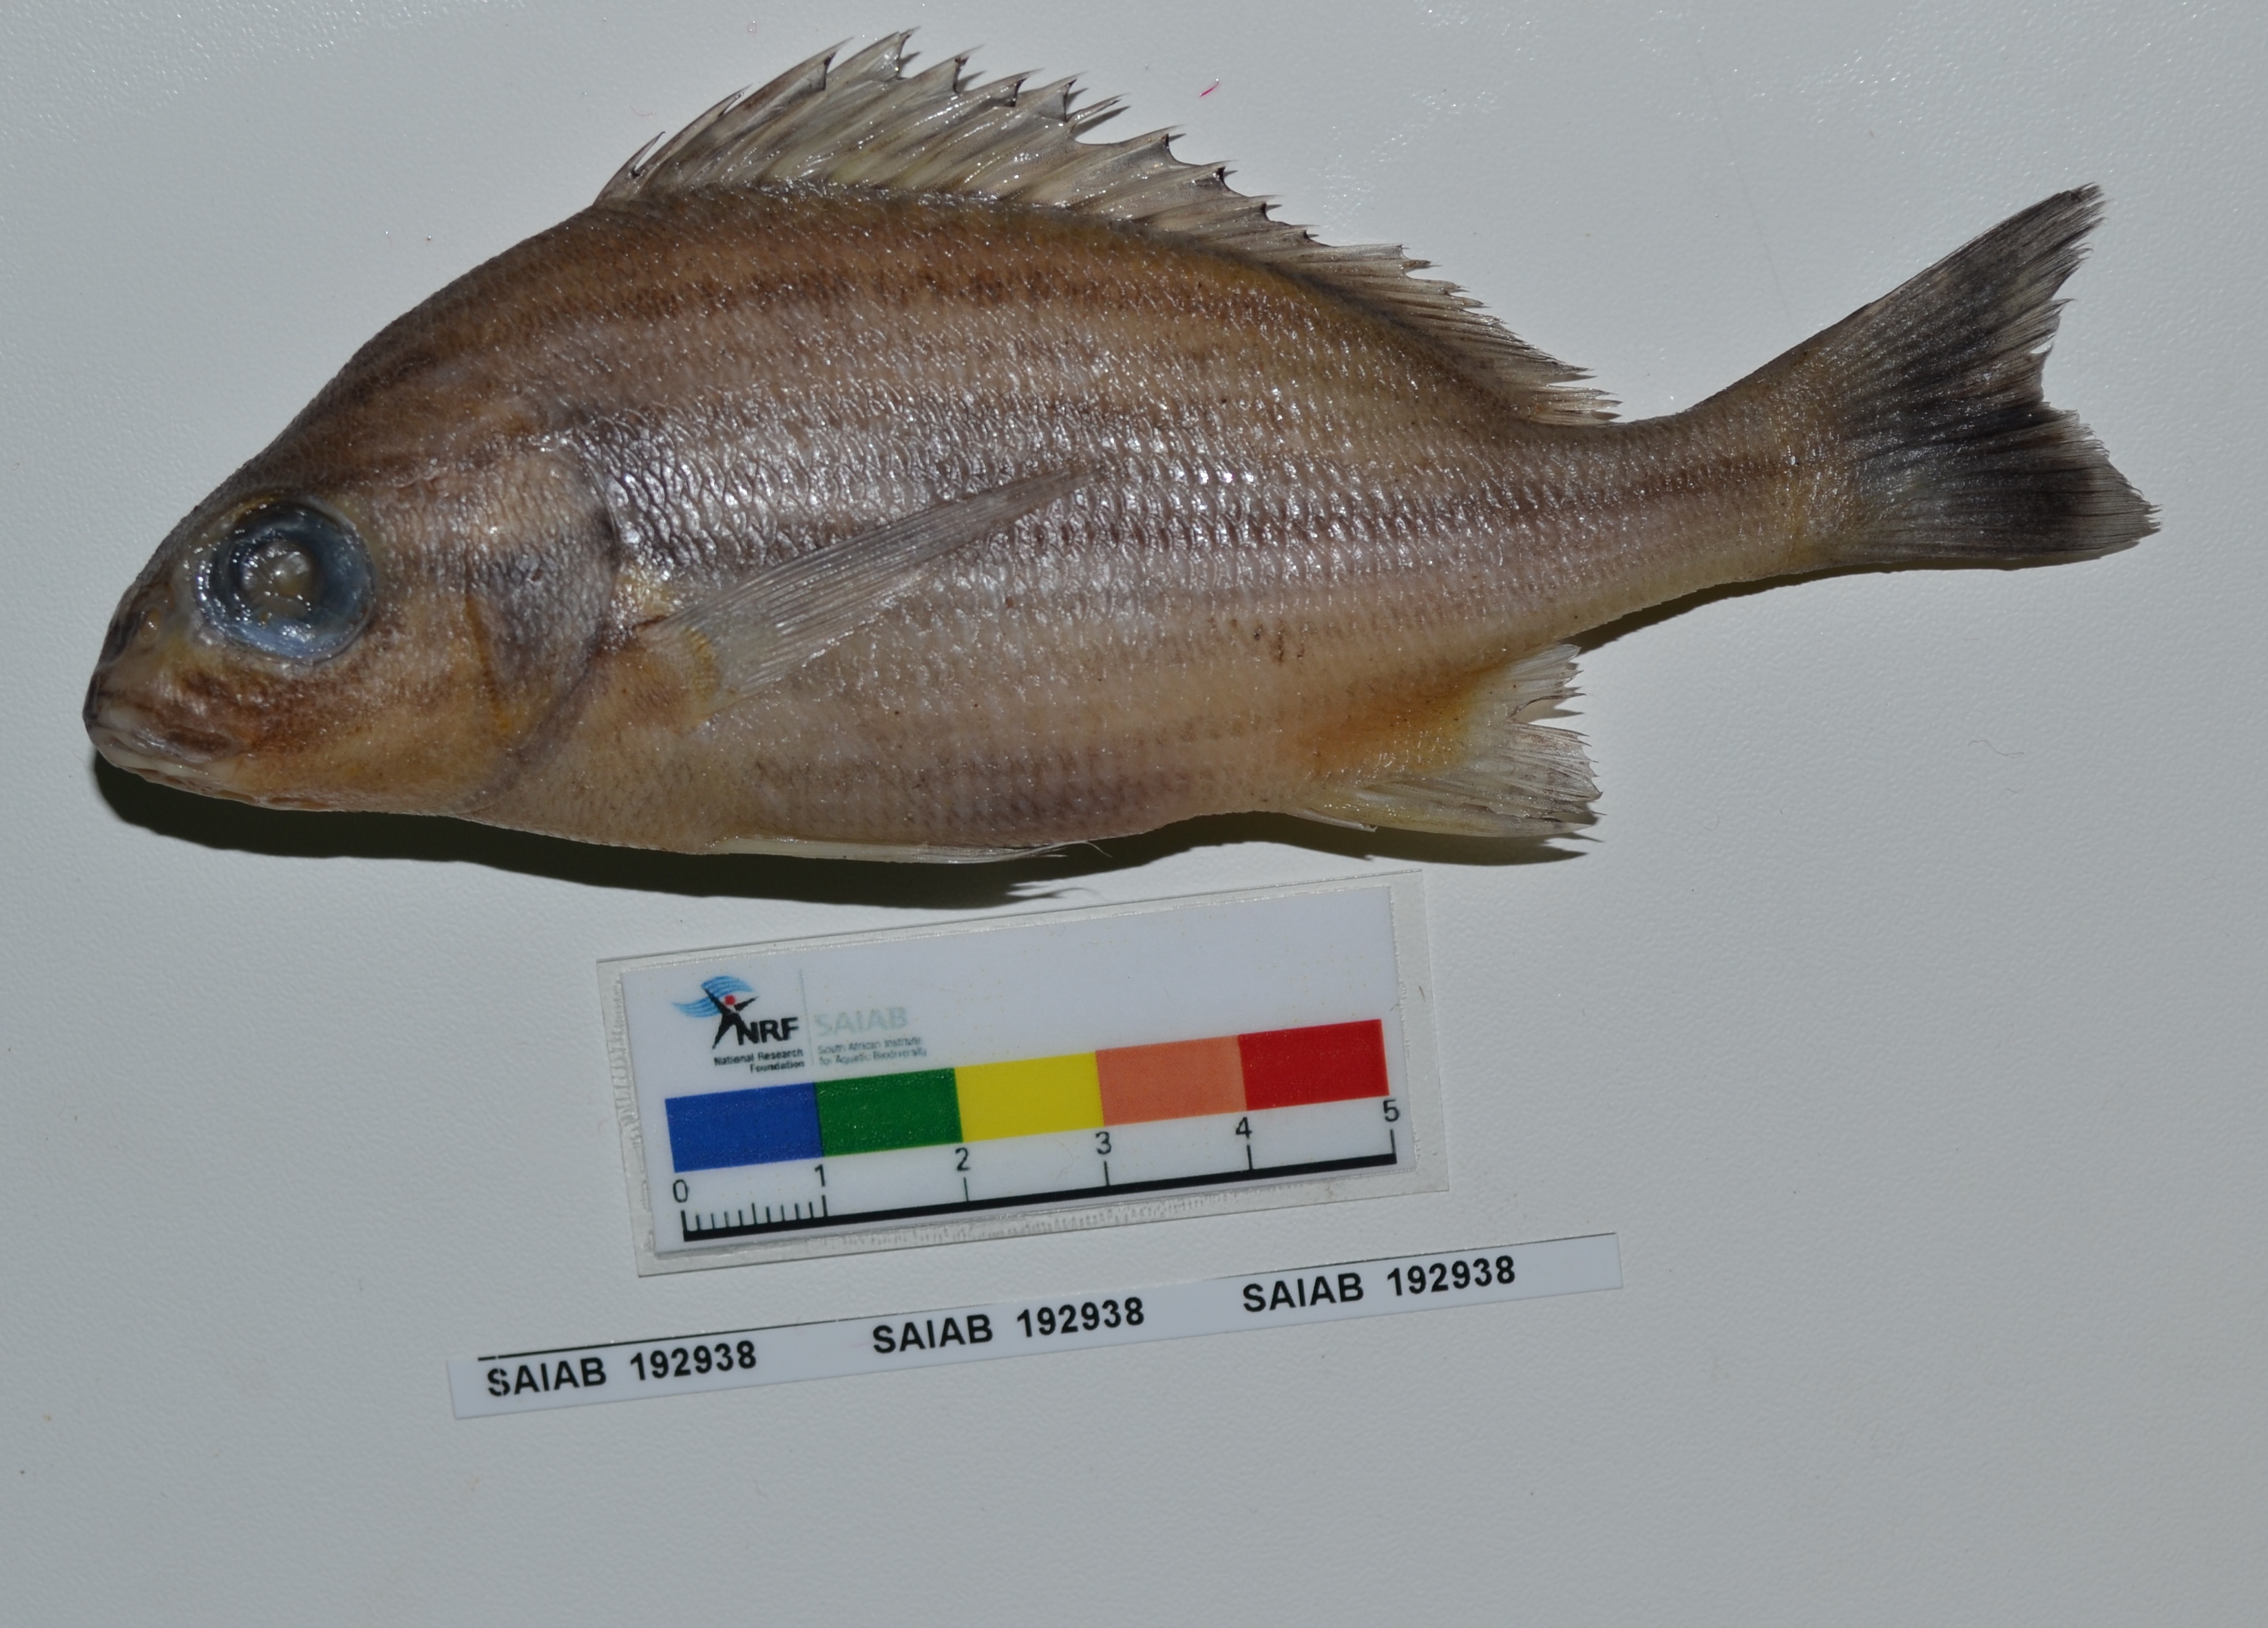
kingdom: Animalia
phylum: Chordata
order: Perciformes
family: Haemulidae
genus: Pomadasys
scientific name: Pomadasys laurentino
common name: Manylined grunter
